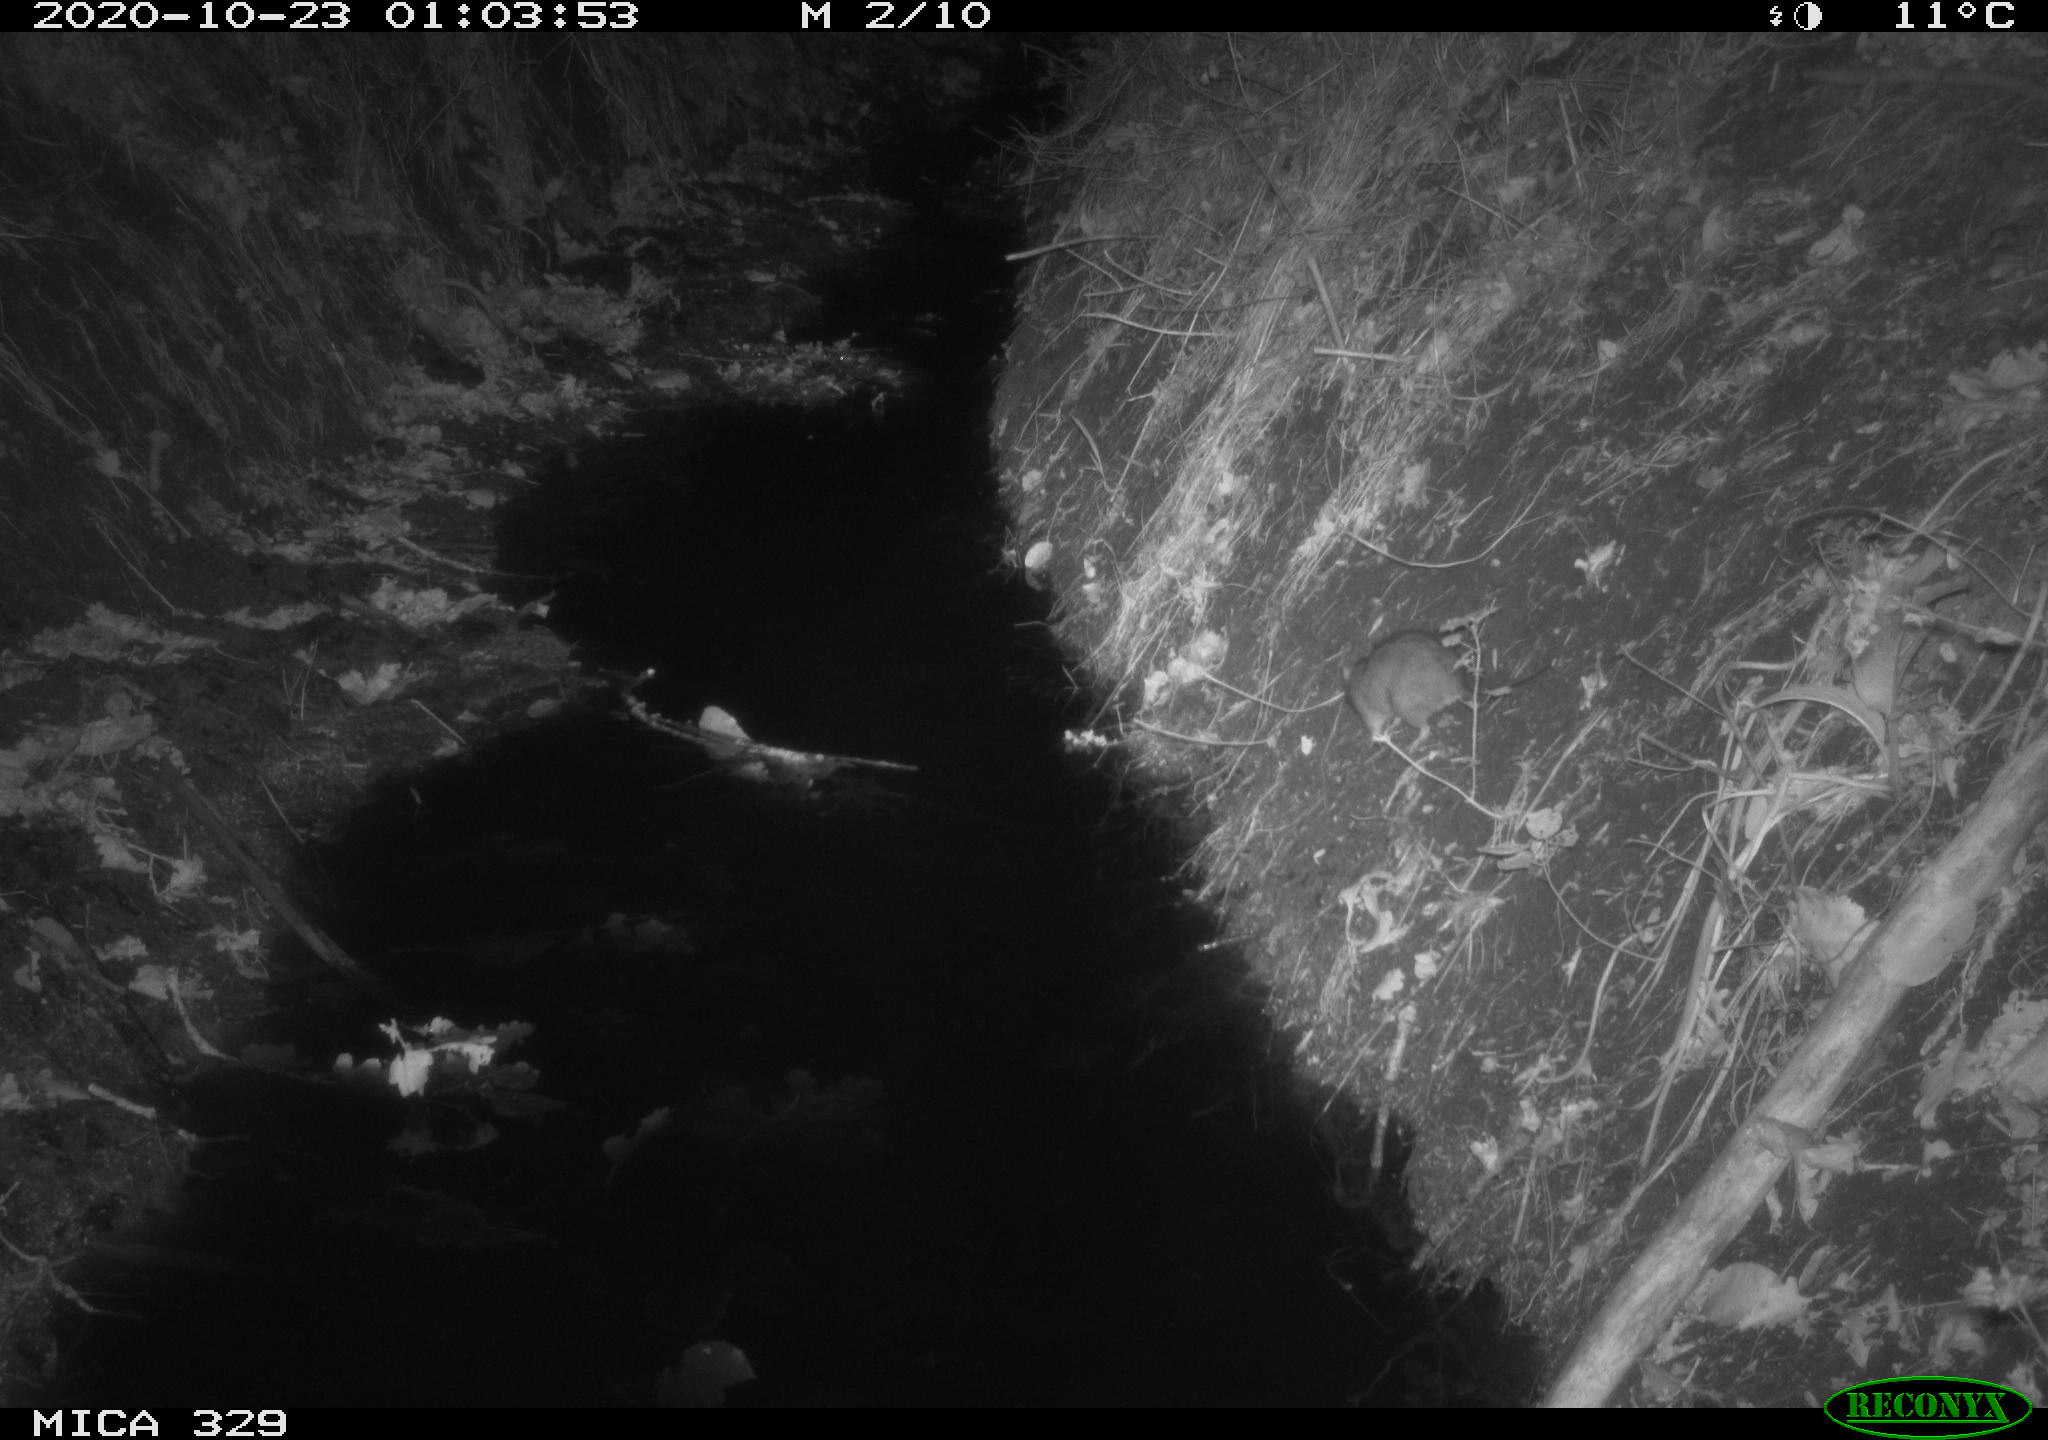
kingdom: Animalia
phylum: Chordata
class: Mammalia
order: Rodentia
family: Muridae
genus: Rattus
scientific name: Rattus norvegicus
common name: Brown rat
